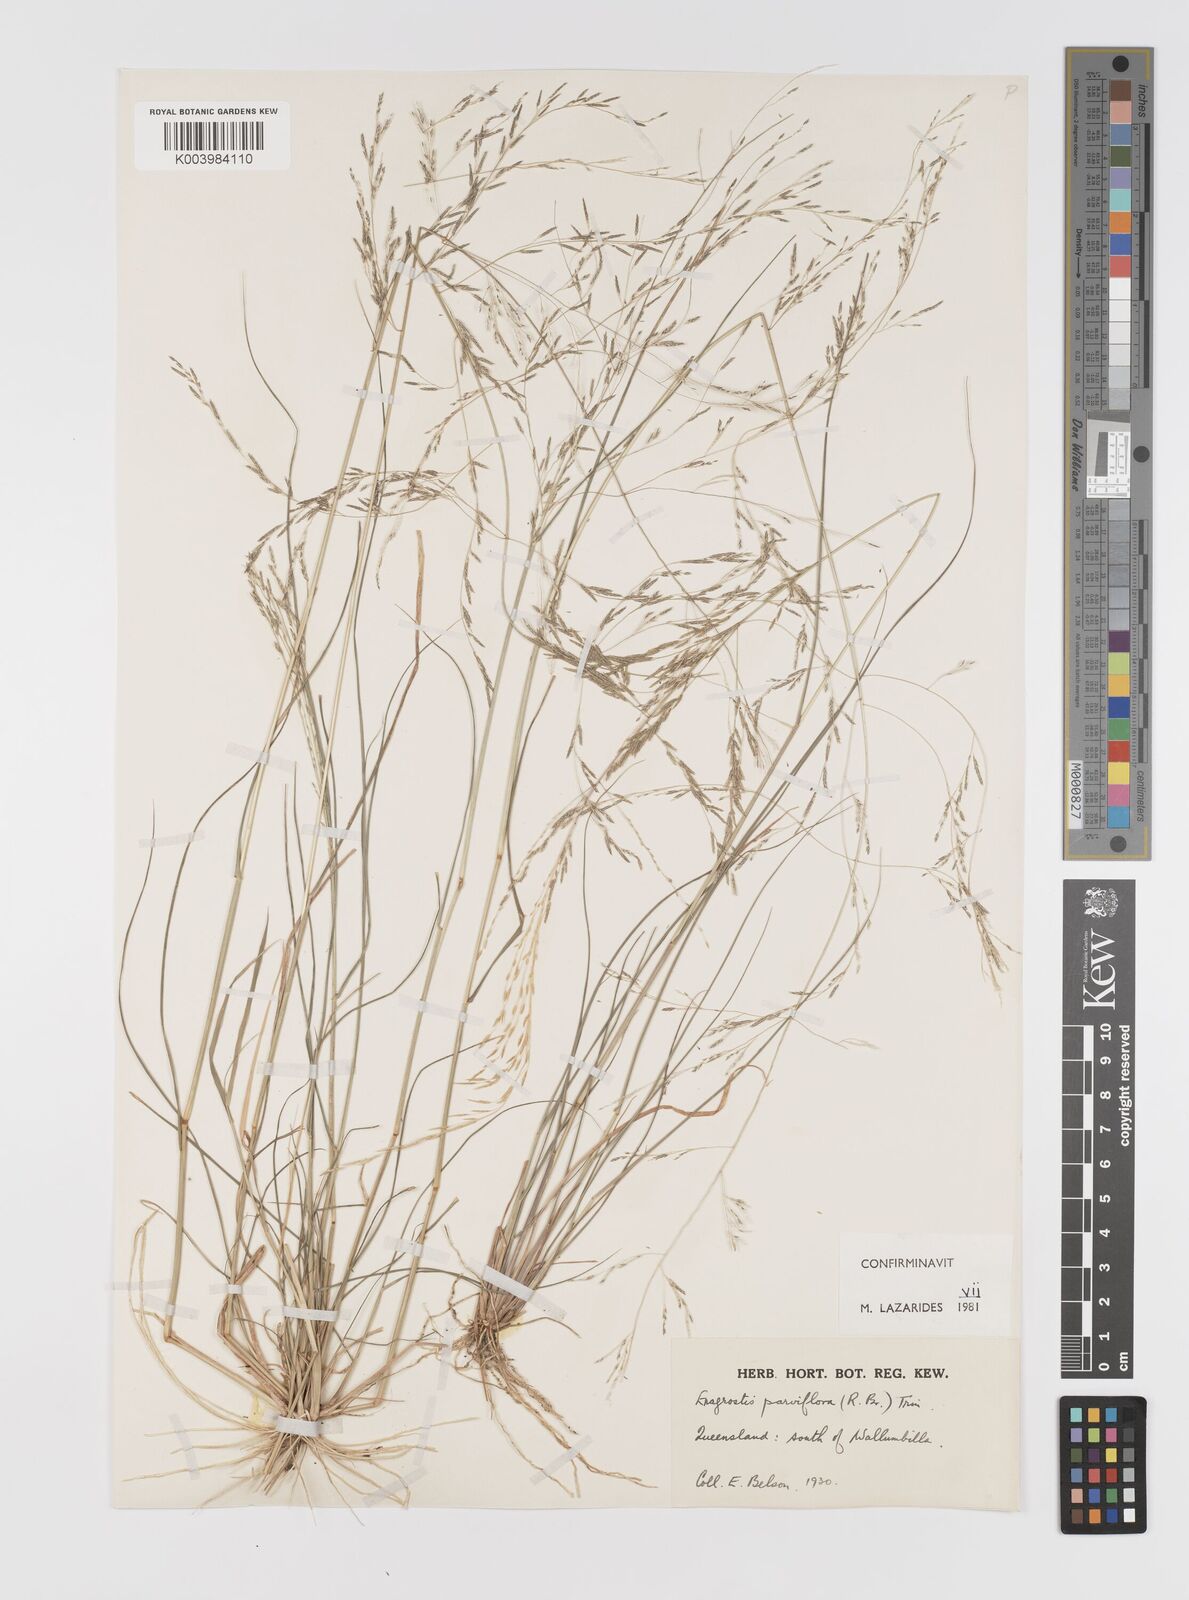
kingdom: Plantae
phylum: Tracheophyta
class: Liliopsida
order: Poales
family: Poaceae
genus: Eragrostis
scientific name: Eragrostis parviflora
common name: Weeping love-grass
